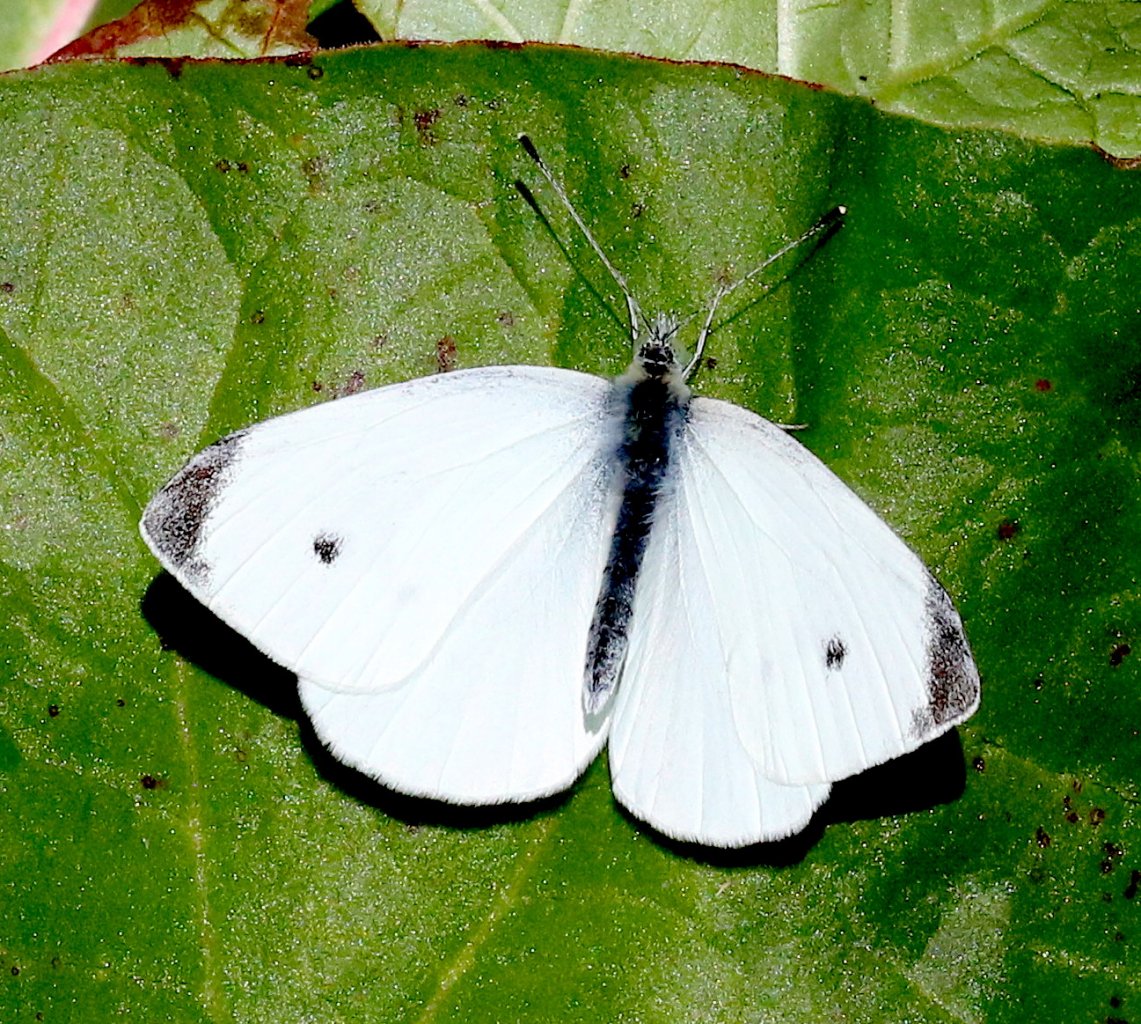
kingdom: Animalia
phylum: Arthropoda
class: Insecta
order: Lepidoptera
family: Pieridae
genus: Pieris
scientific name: Pieris rapae
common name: Cabbage White
